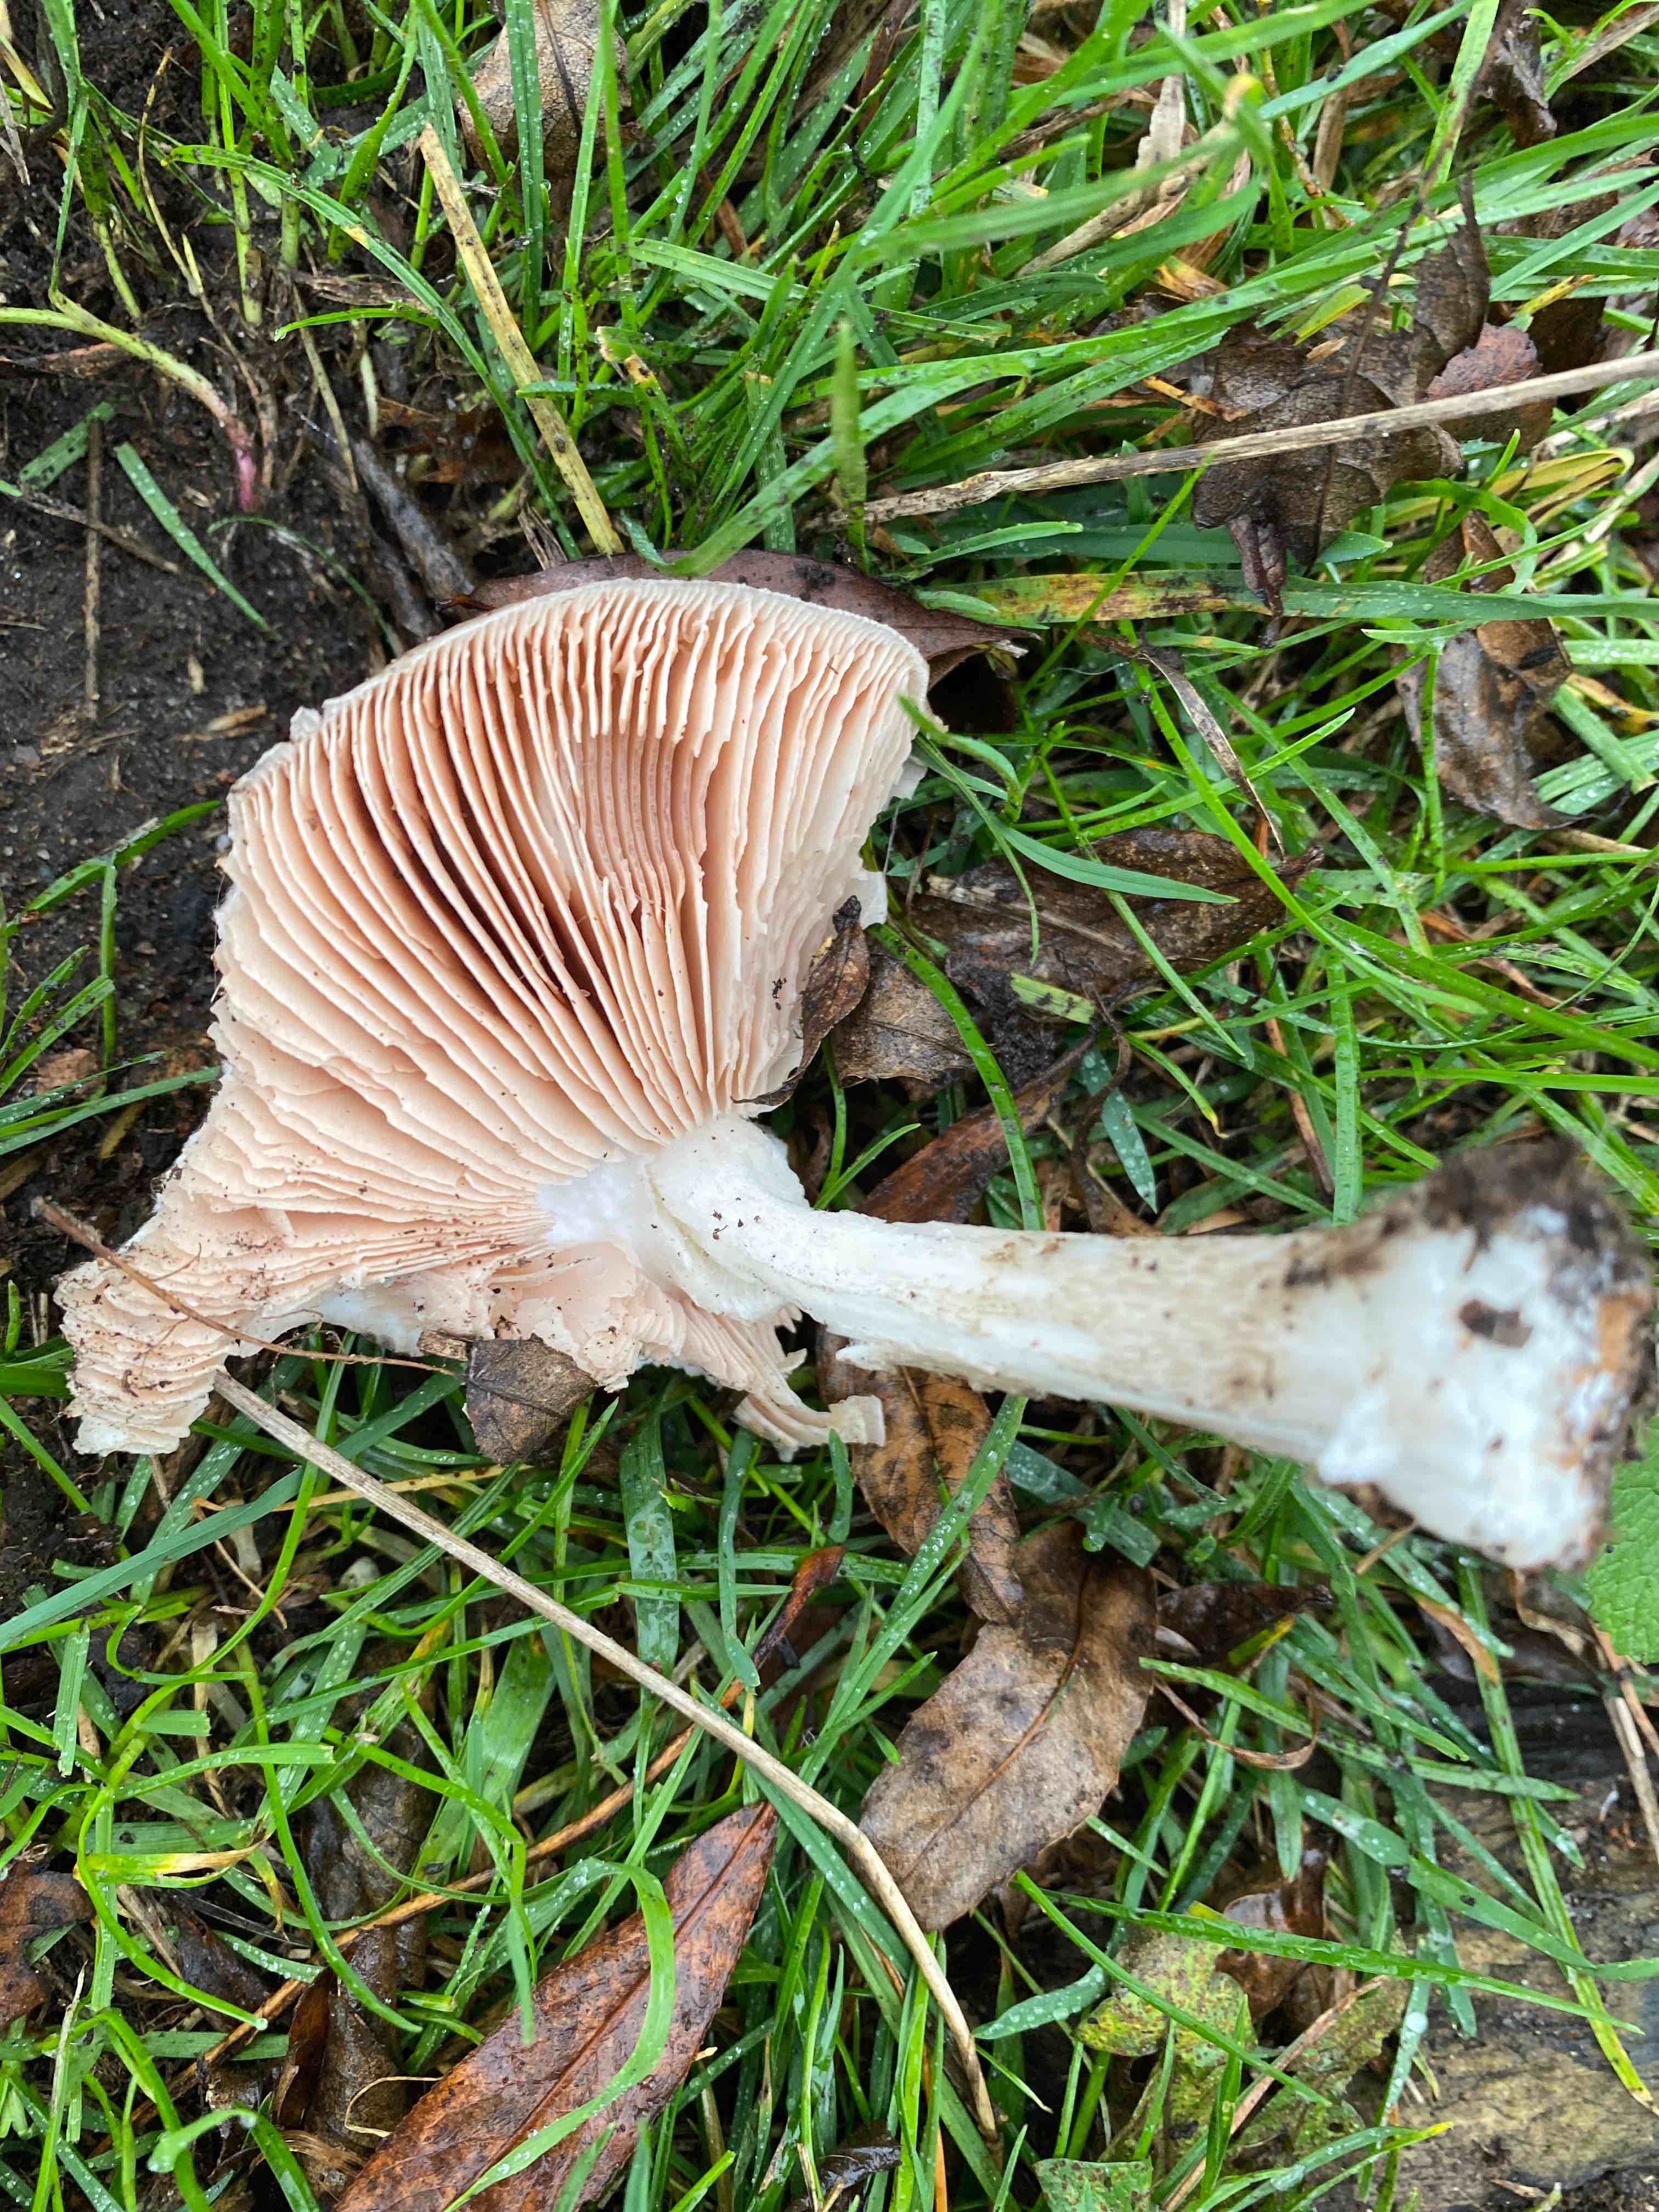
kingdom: Fungi
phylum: Basidiomycota
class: Agaricomycetes
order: Agaricales
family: Pluteaceae
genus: Pluteus
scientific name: Pluteus cervinus
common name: sodfarvet skærmhat
